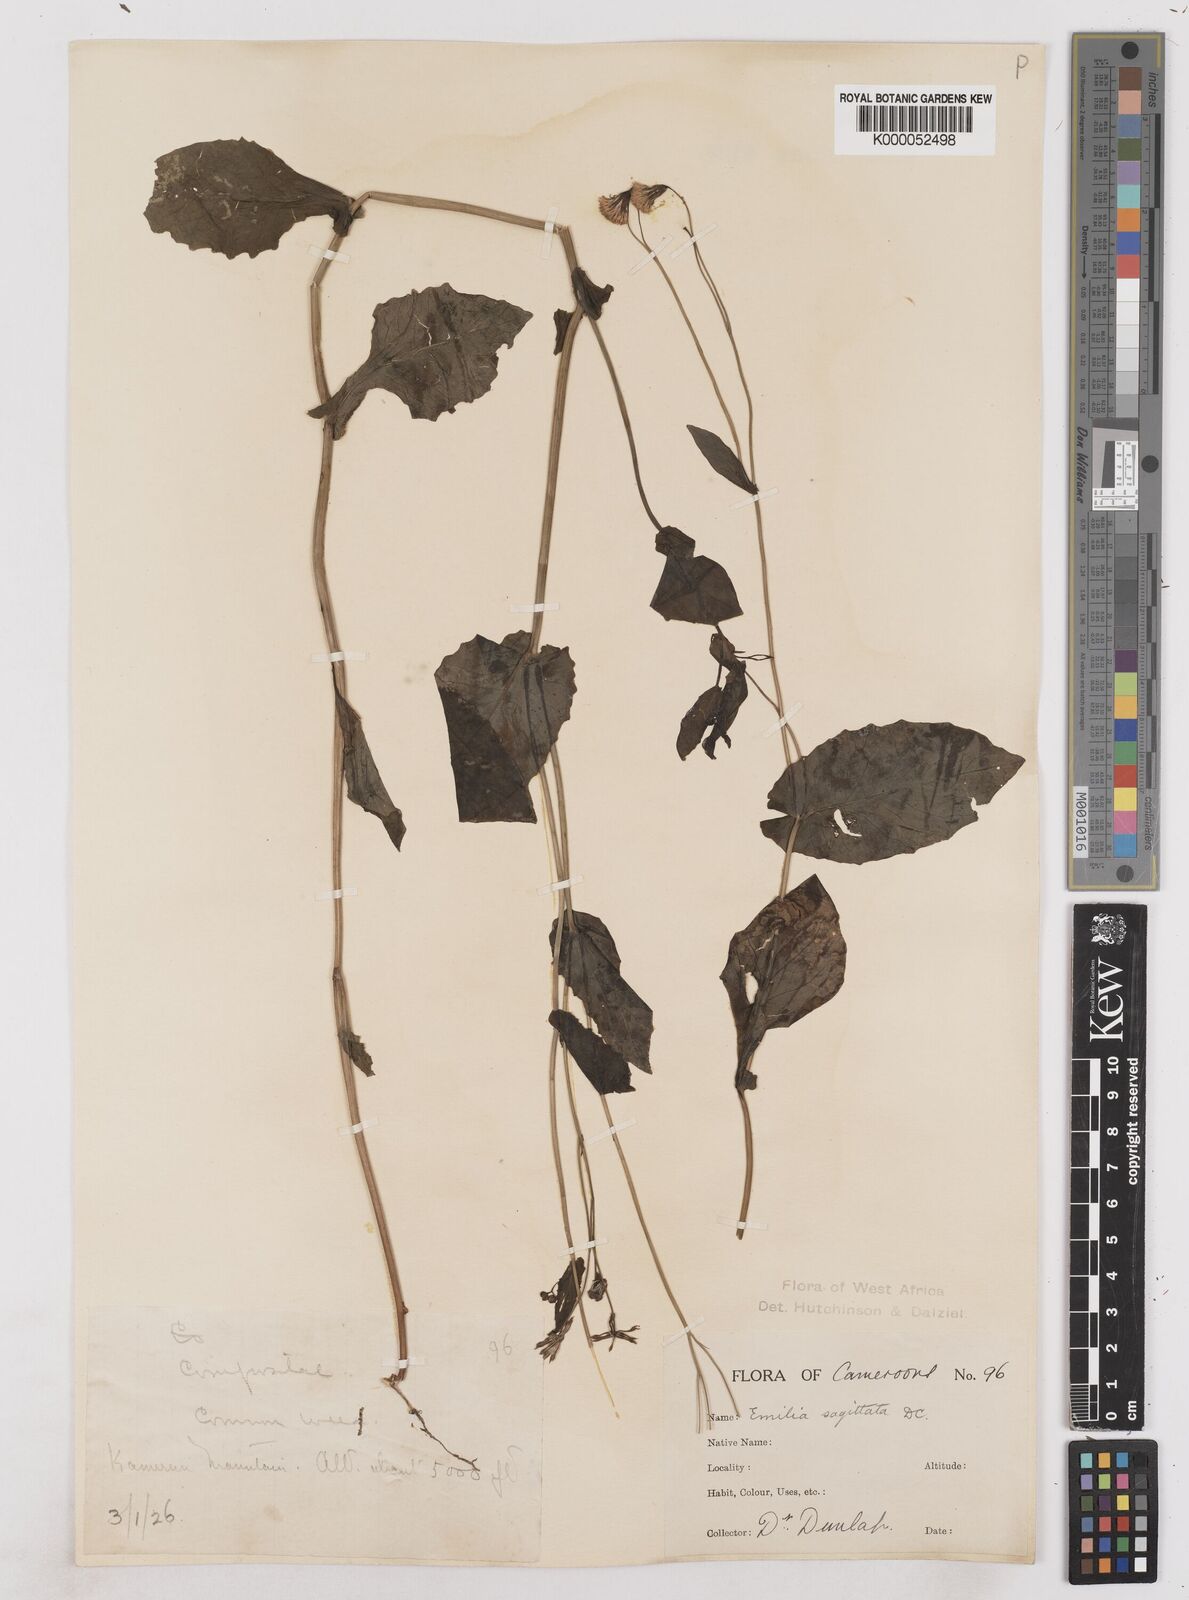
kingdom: Plantae
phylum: Tracheophyta
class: Magnoliopsida
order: Asterales
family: Asteraceae
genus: Emilia
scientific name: Emilia lisowskiana
